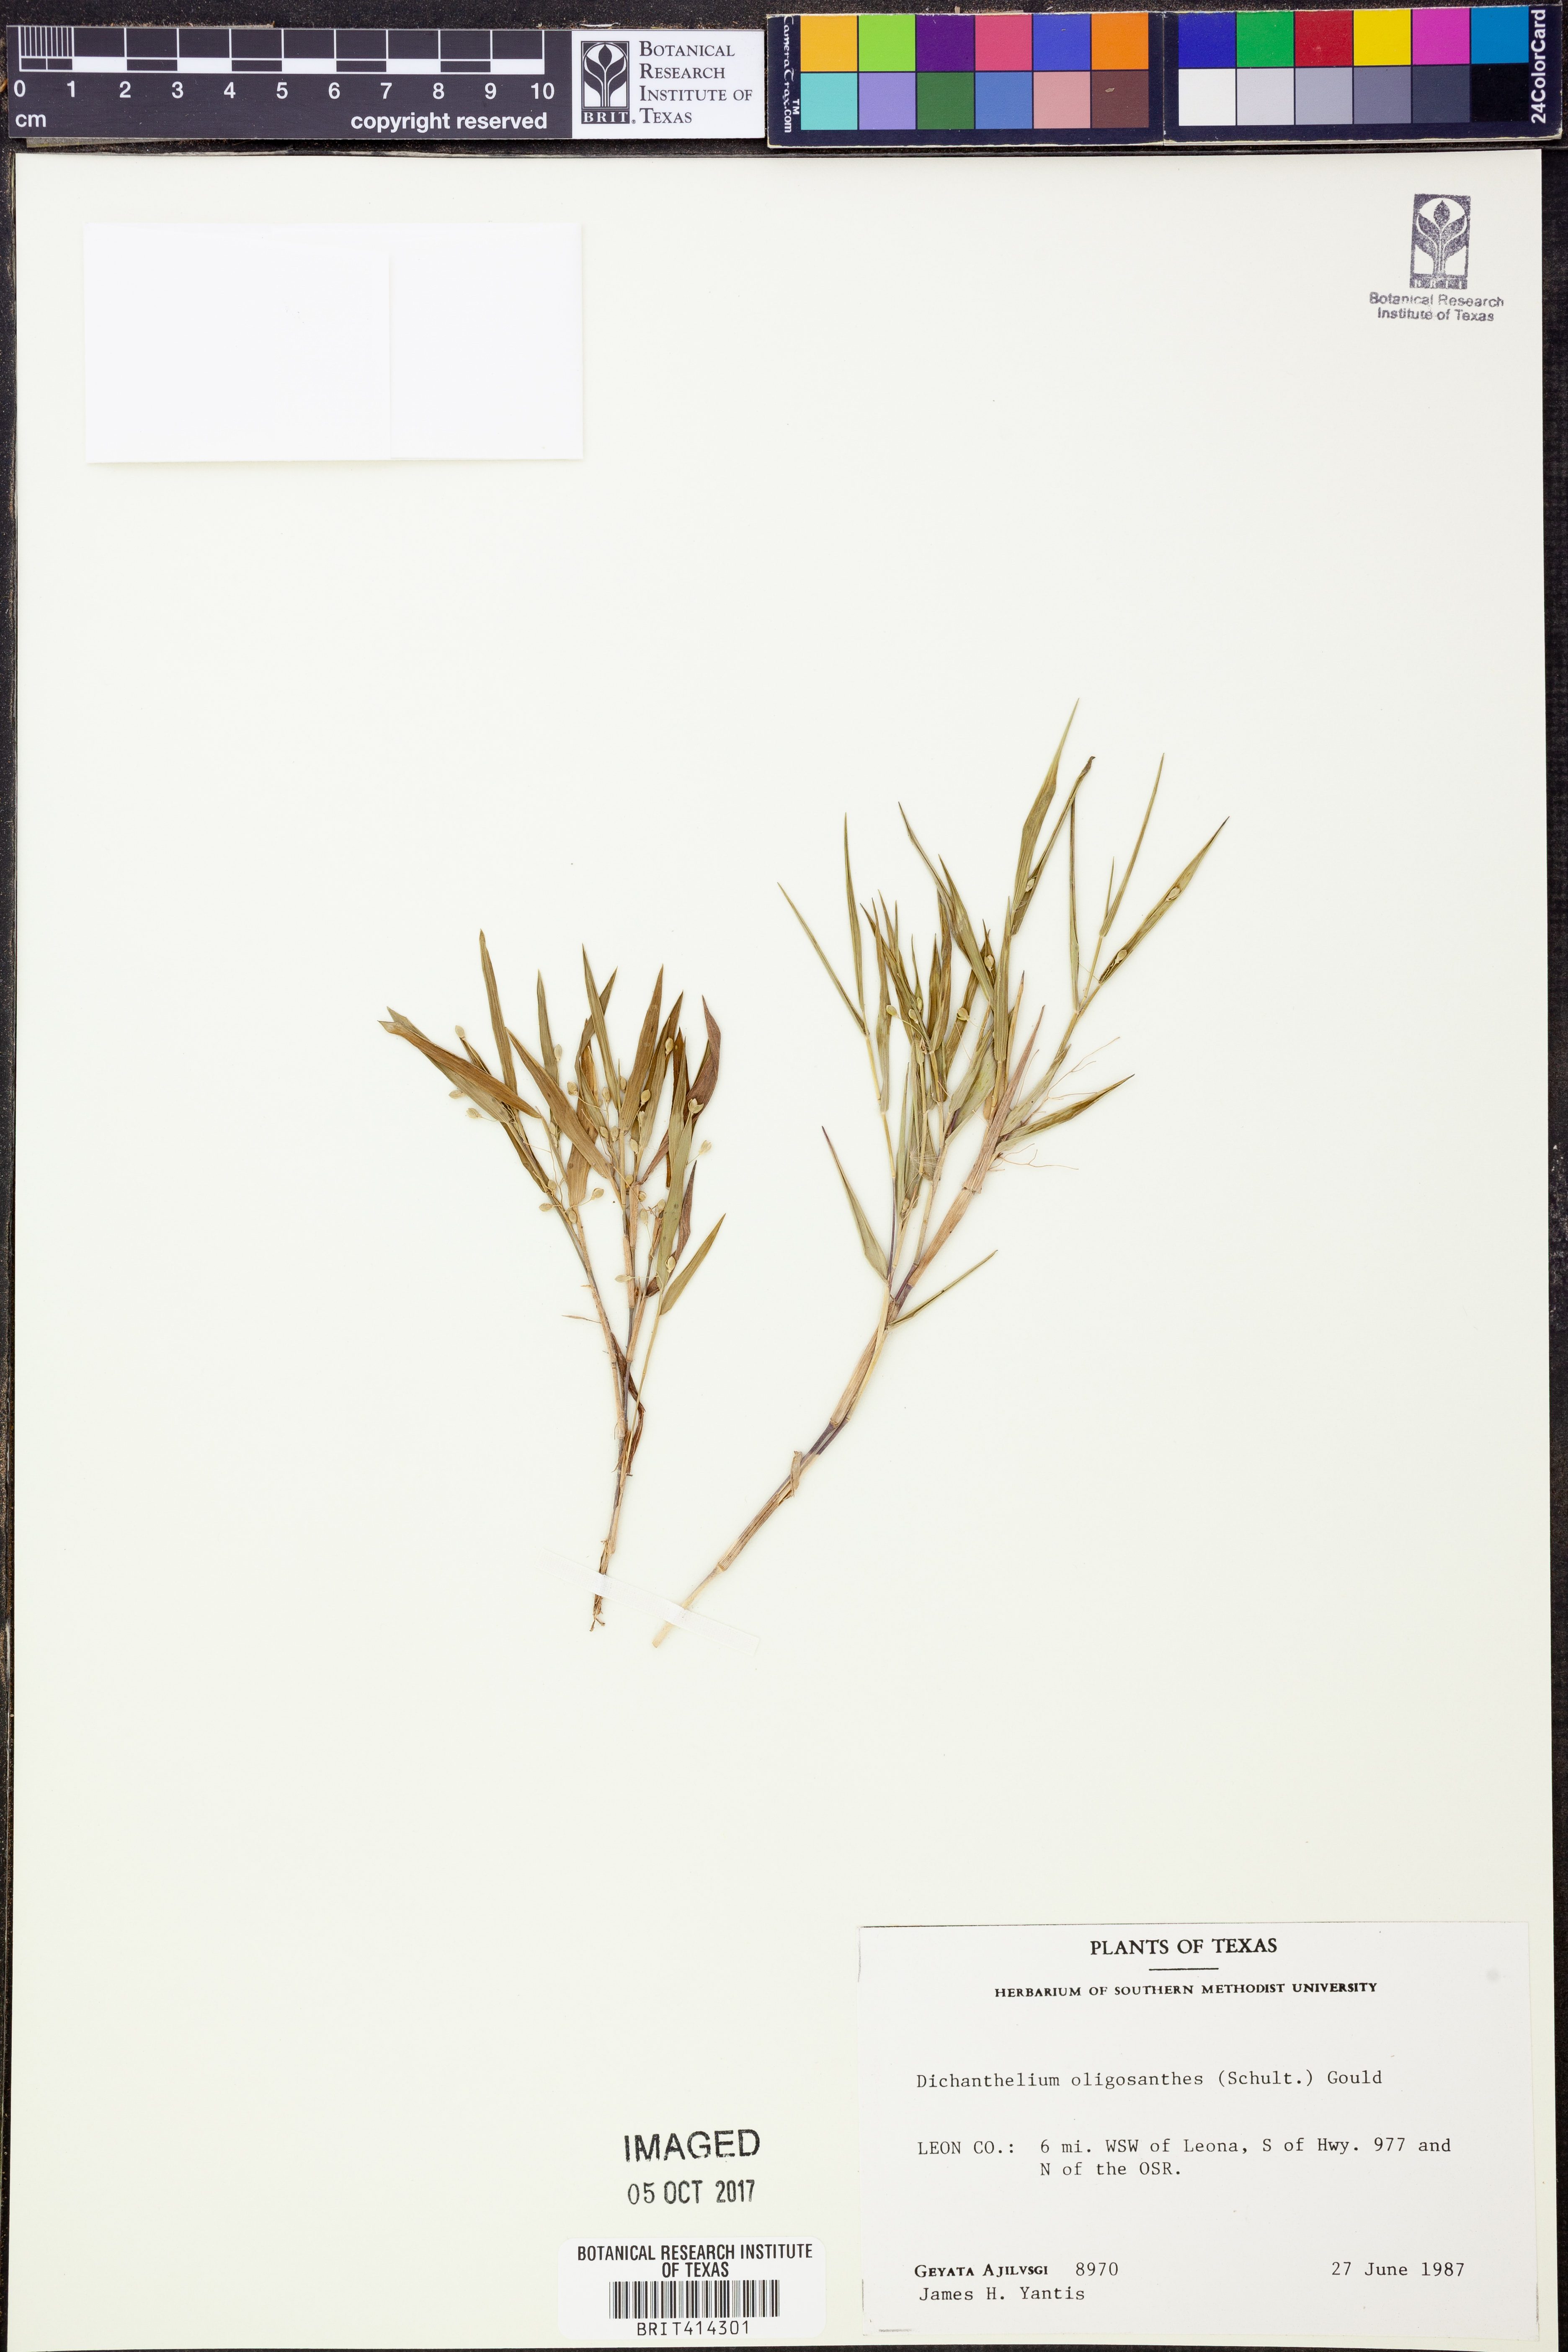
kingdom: Plantae
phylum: Tracheophyta
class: Liliopsida
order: Poales
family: Poaceae
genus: Dichanthelium
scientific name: Dichanthelium oligosanthes
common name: Few-anther obscuregrass
